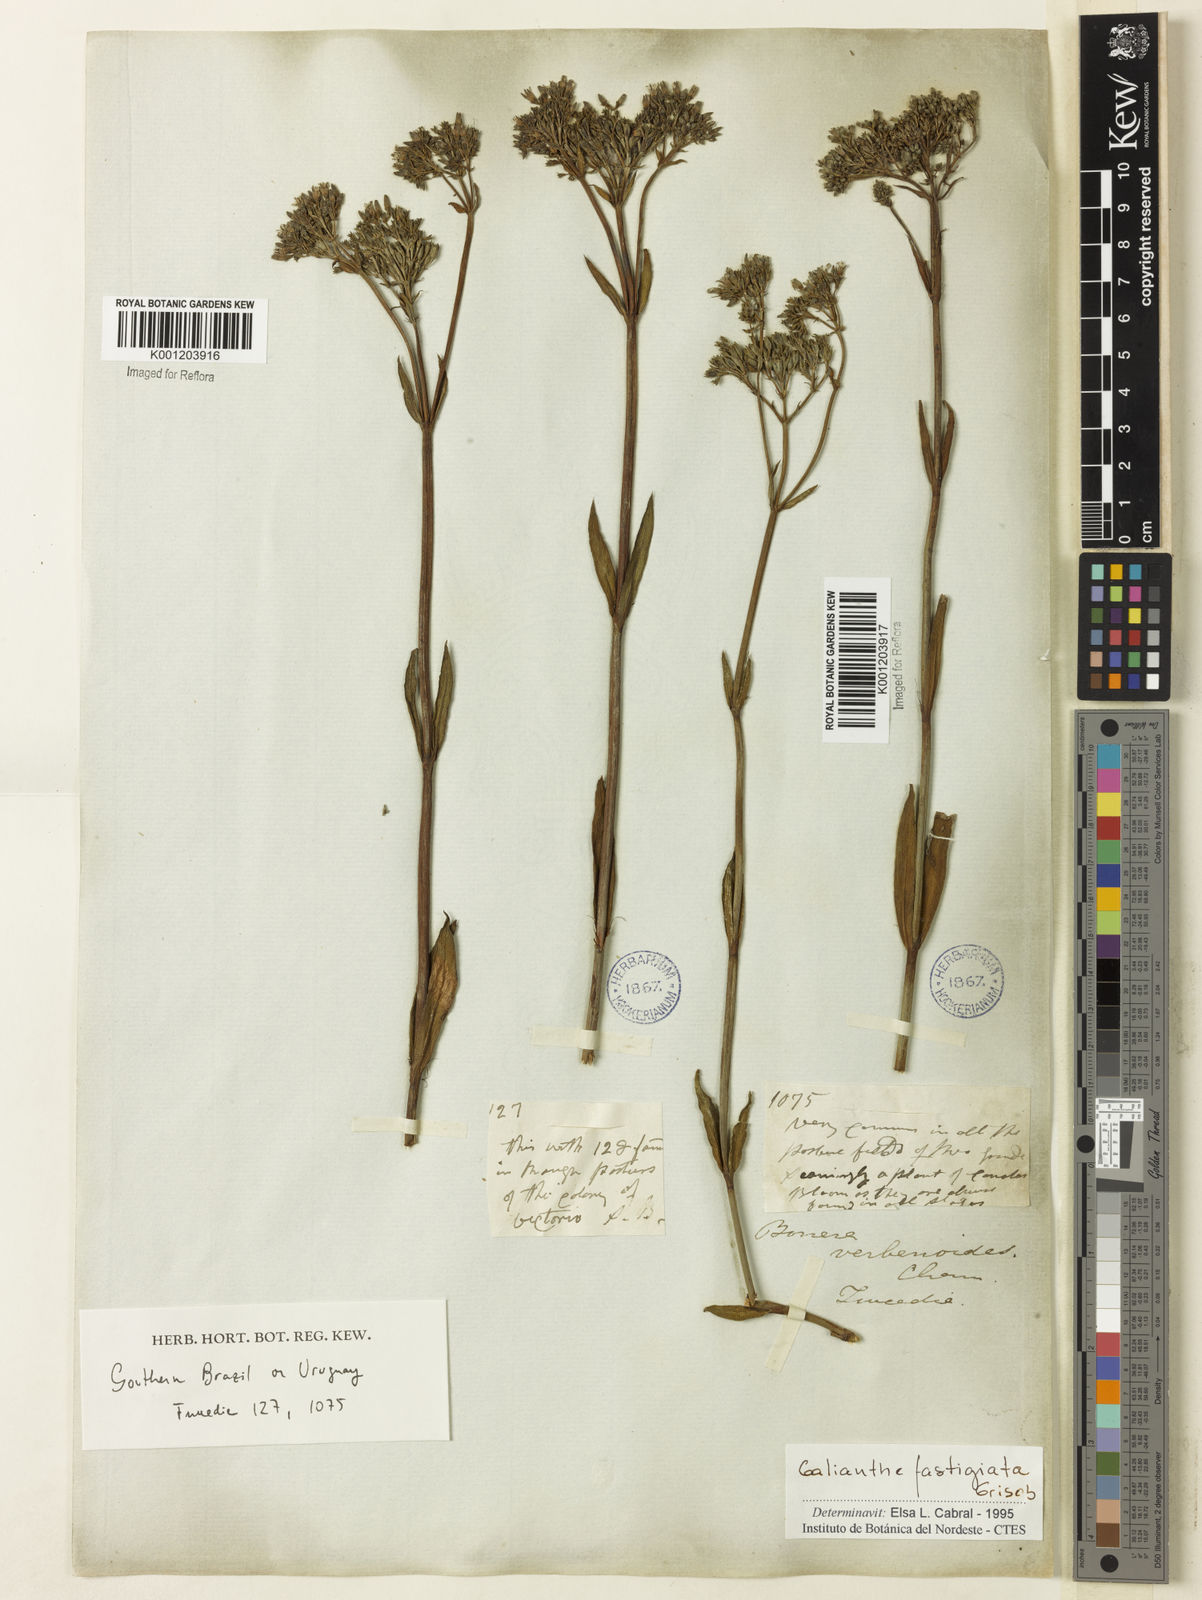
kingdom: Plantae
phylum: Tracheophyta
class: Magnoliopsida
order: Gentianales
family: Rubiaceae
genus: Galianthe
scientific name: Galianthe fastigiata
